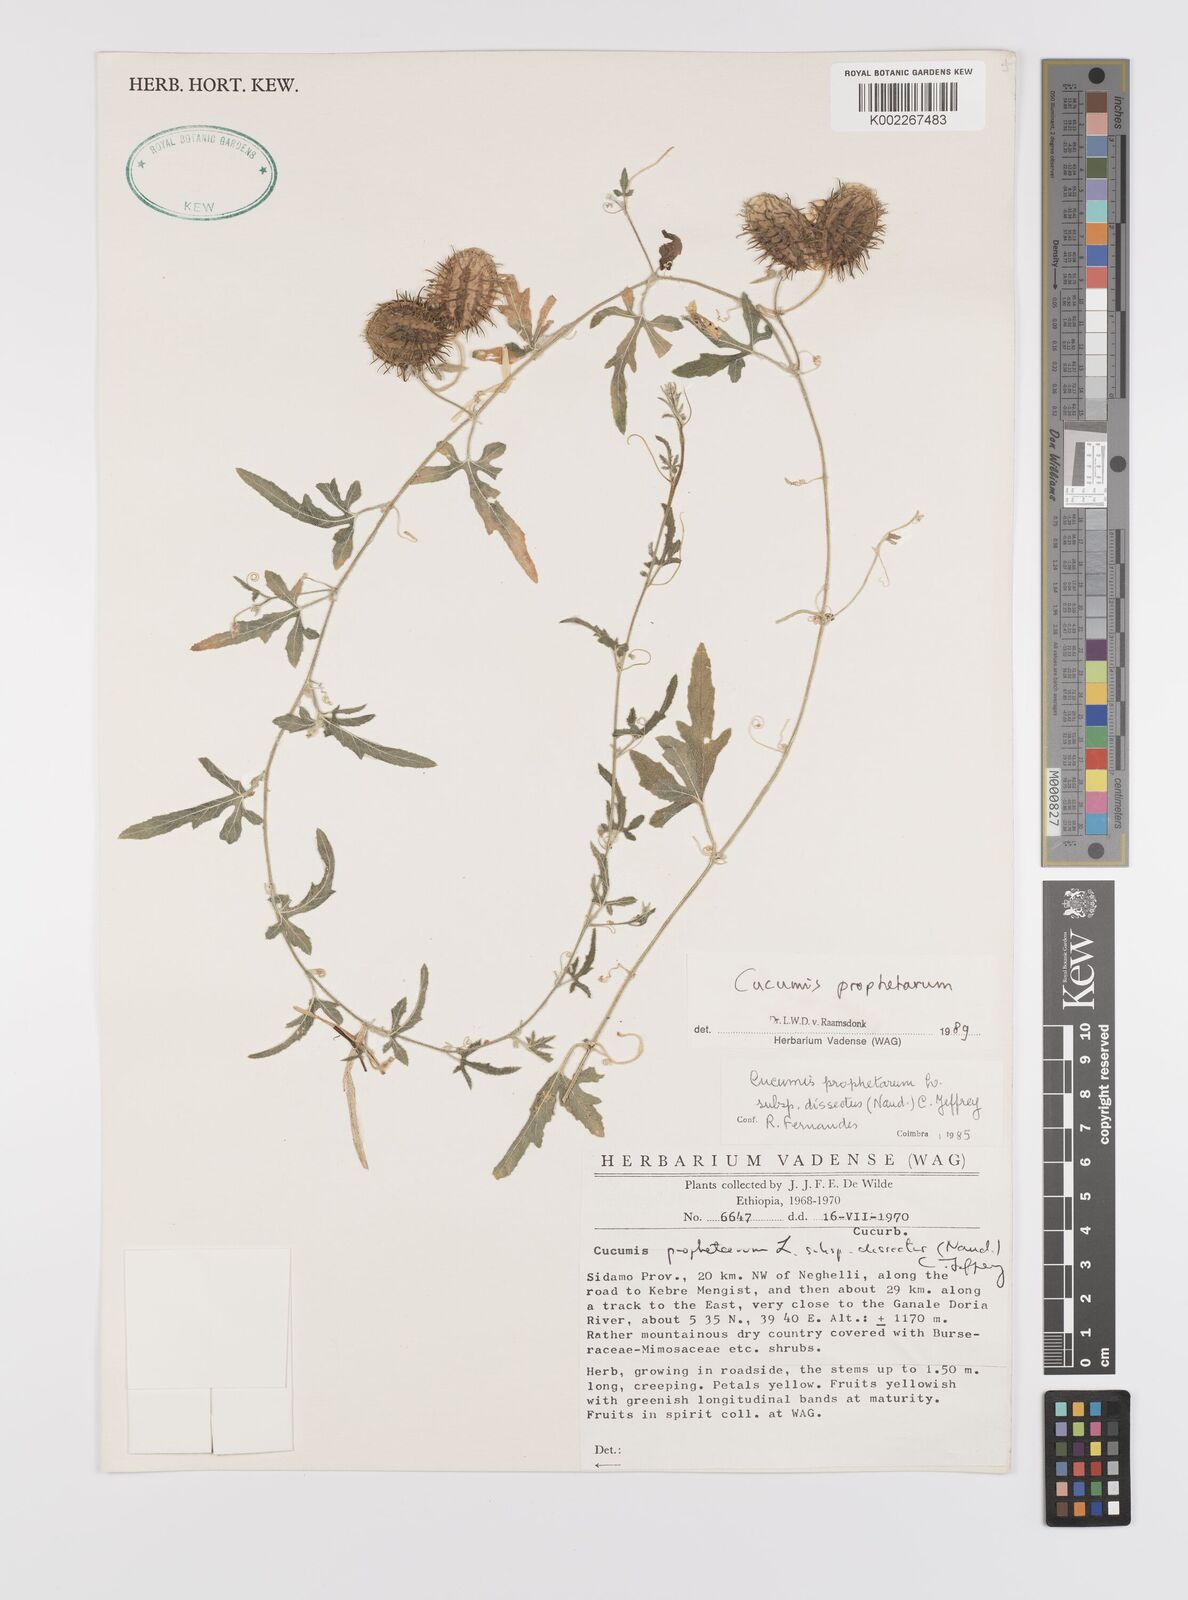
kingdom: Plantae
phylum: Tracheophyta
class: Magnoliopsida
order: Cucurbitales
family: Cucurbitaceae
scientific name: Cucurbitaceae
